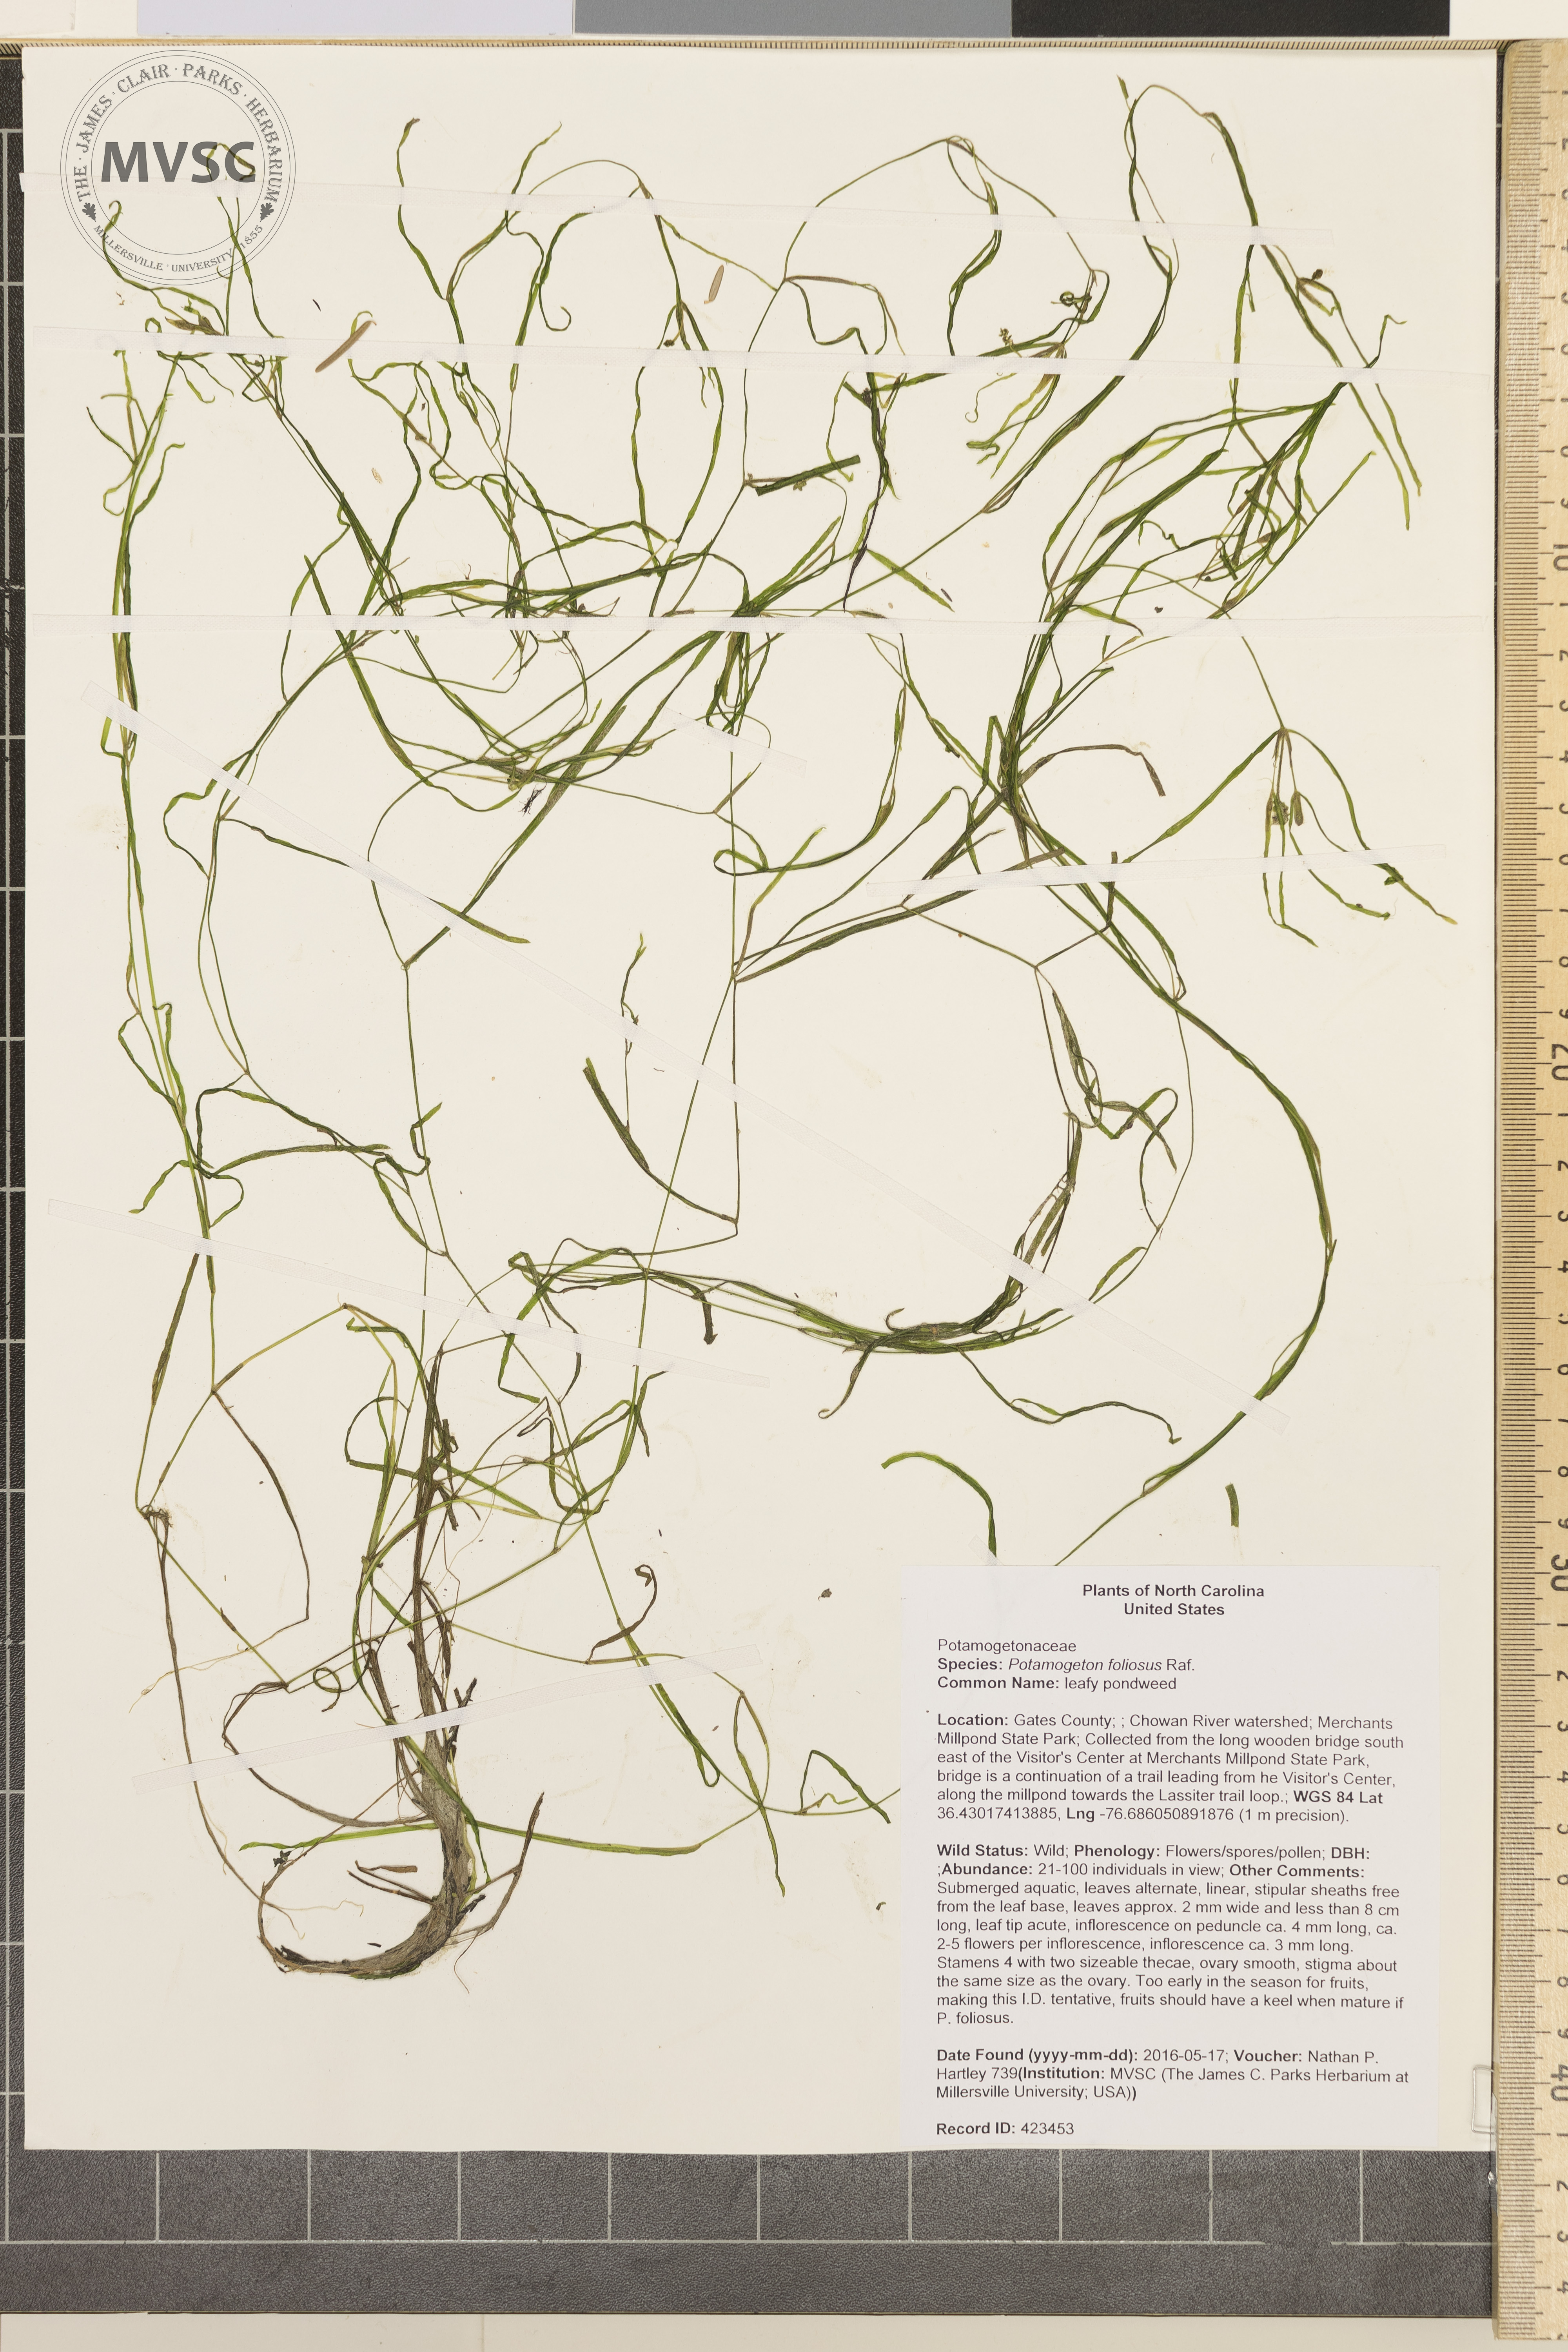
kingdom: Plantae
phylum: Tracheophyta
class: Liliopsida
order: Alismatales
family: Potamogetonaceae
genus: Potamogeton
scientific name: Potamogeton foliosus
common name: leafy pondweed
